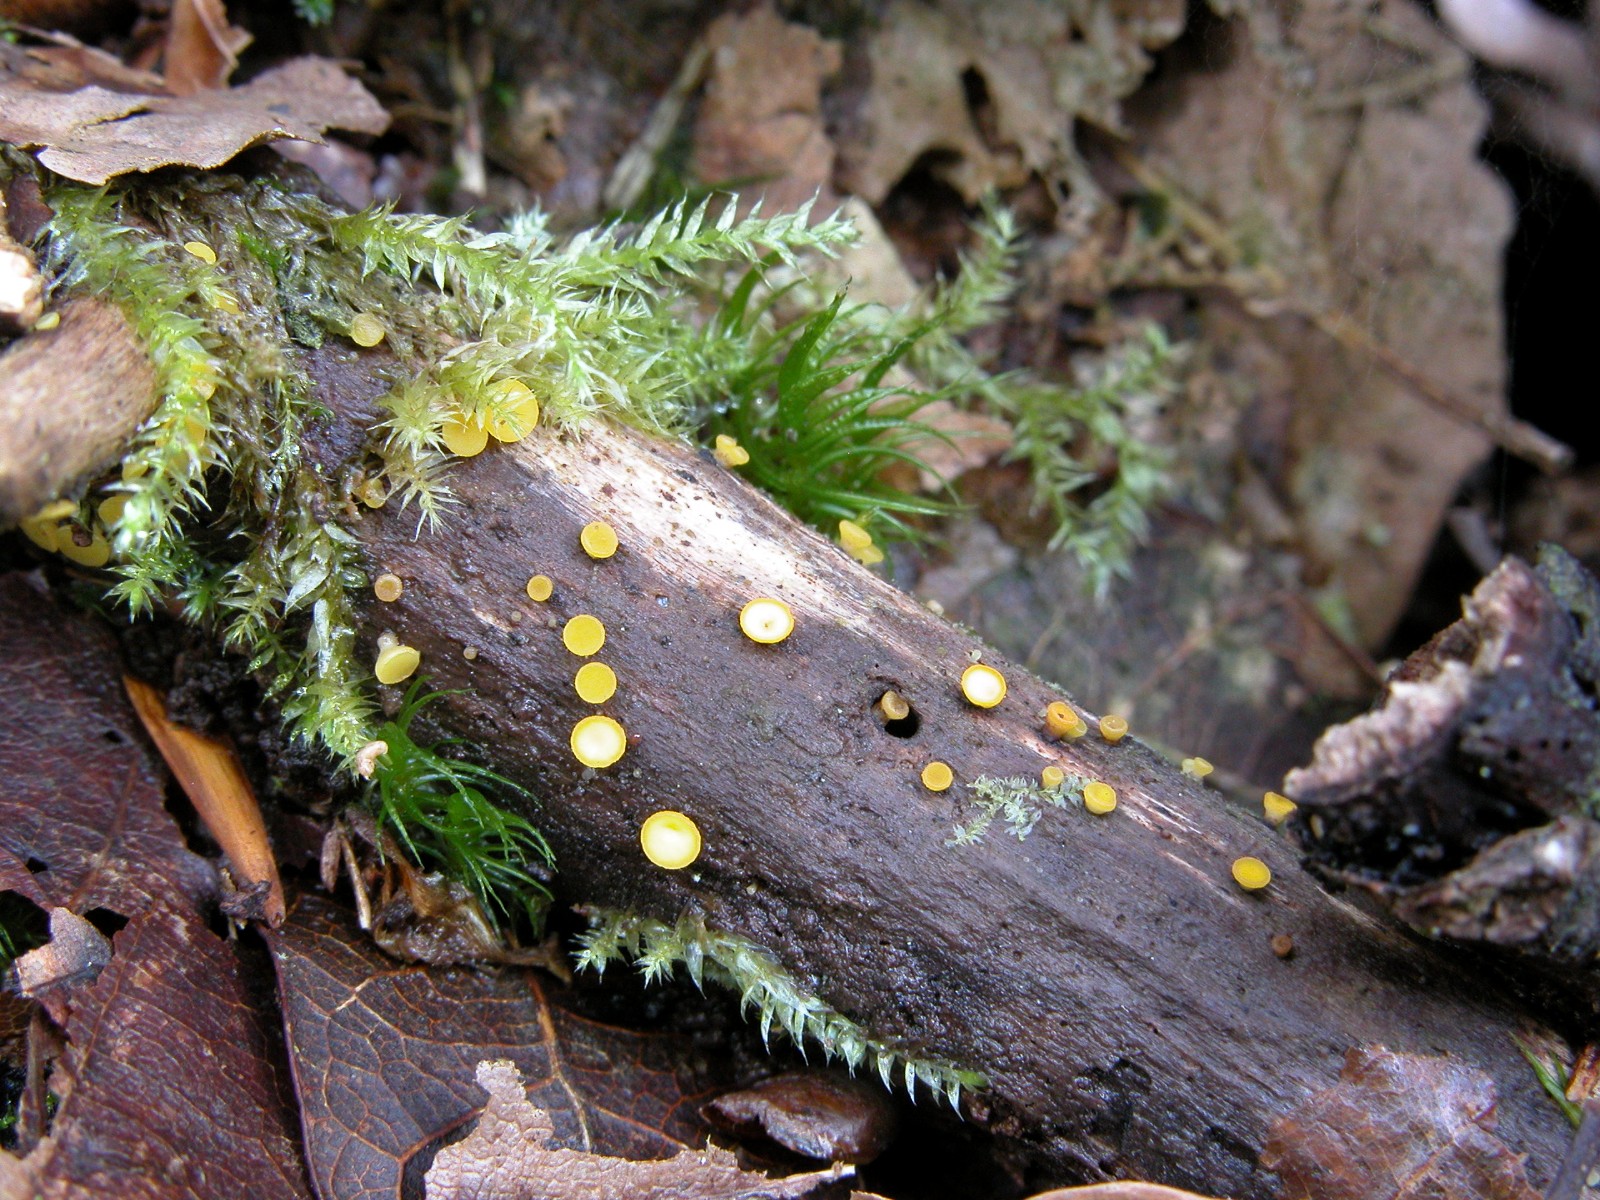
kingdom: Fungi
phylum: Ascomycota
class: Leotiomycetes
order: Helotiales
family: Pezizellaceae
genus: Calycina
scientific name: Calycina citrina
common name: almindelig gulskive
